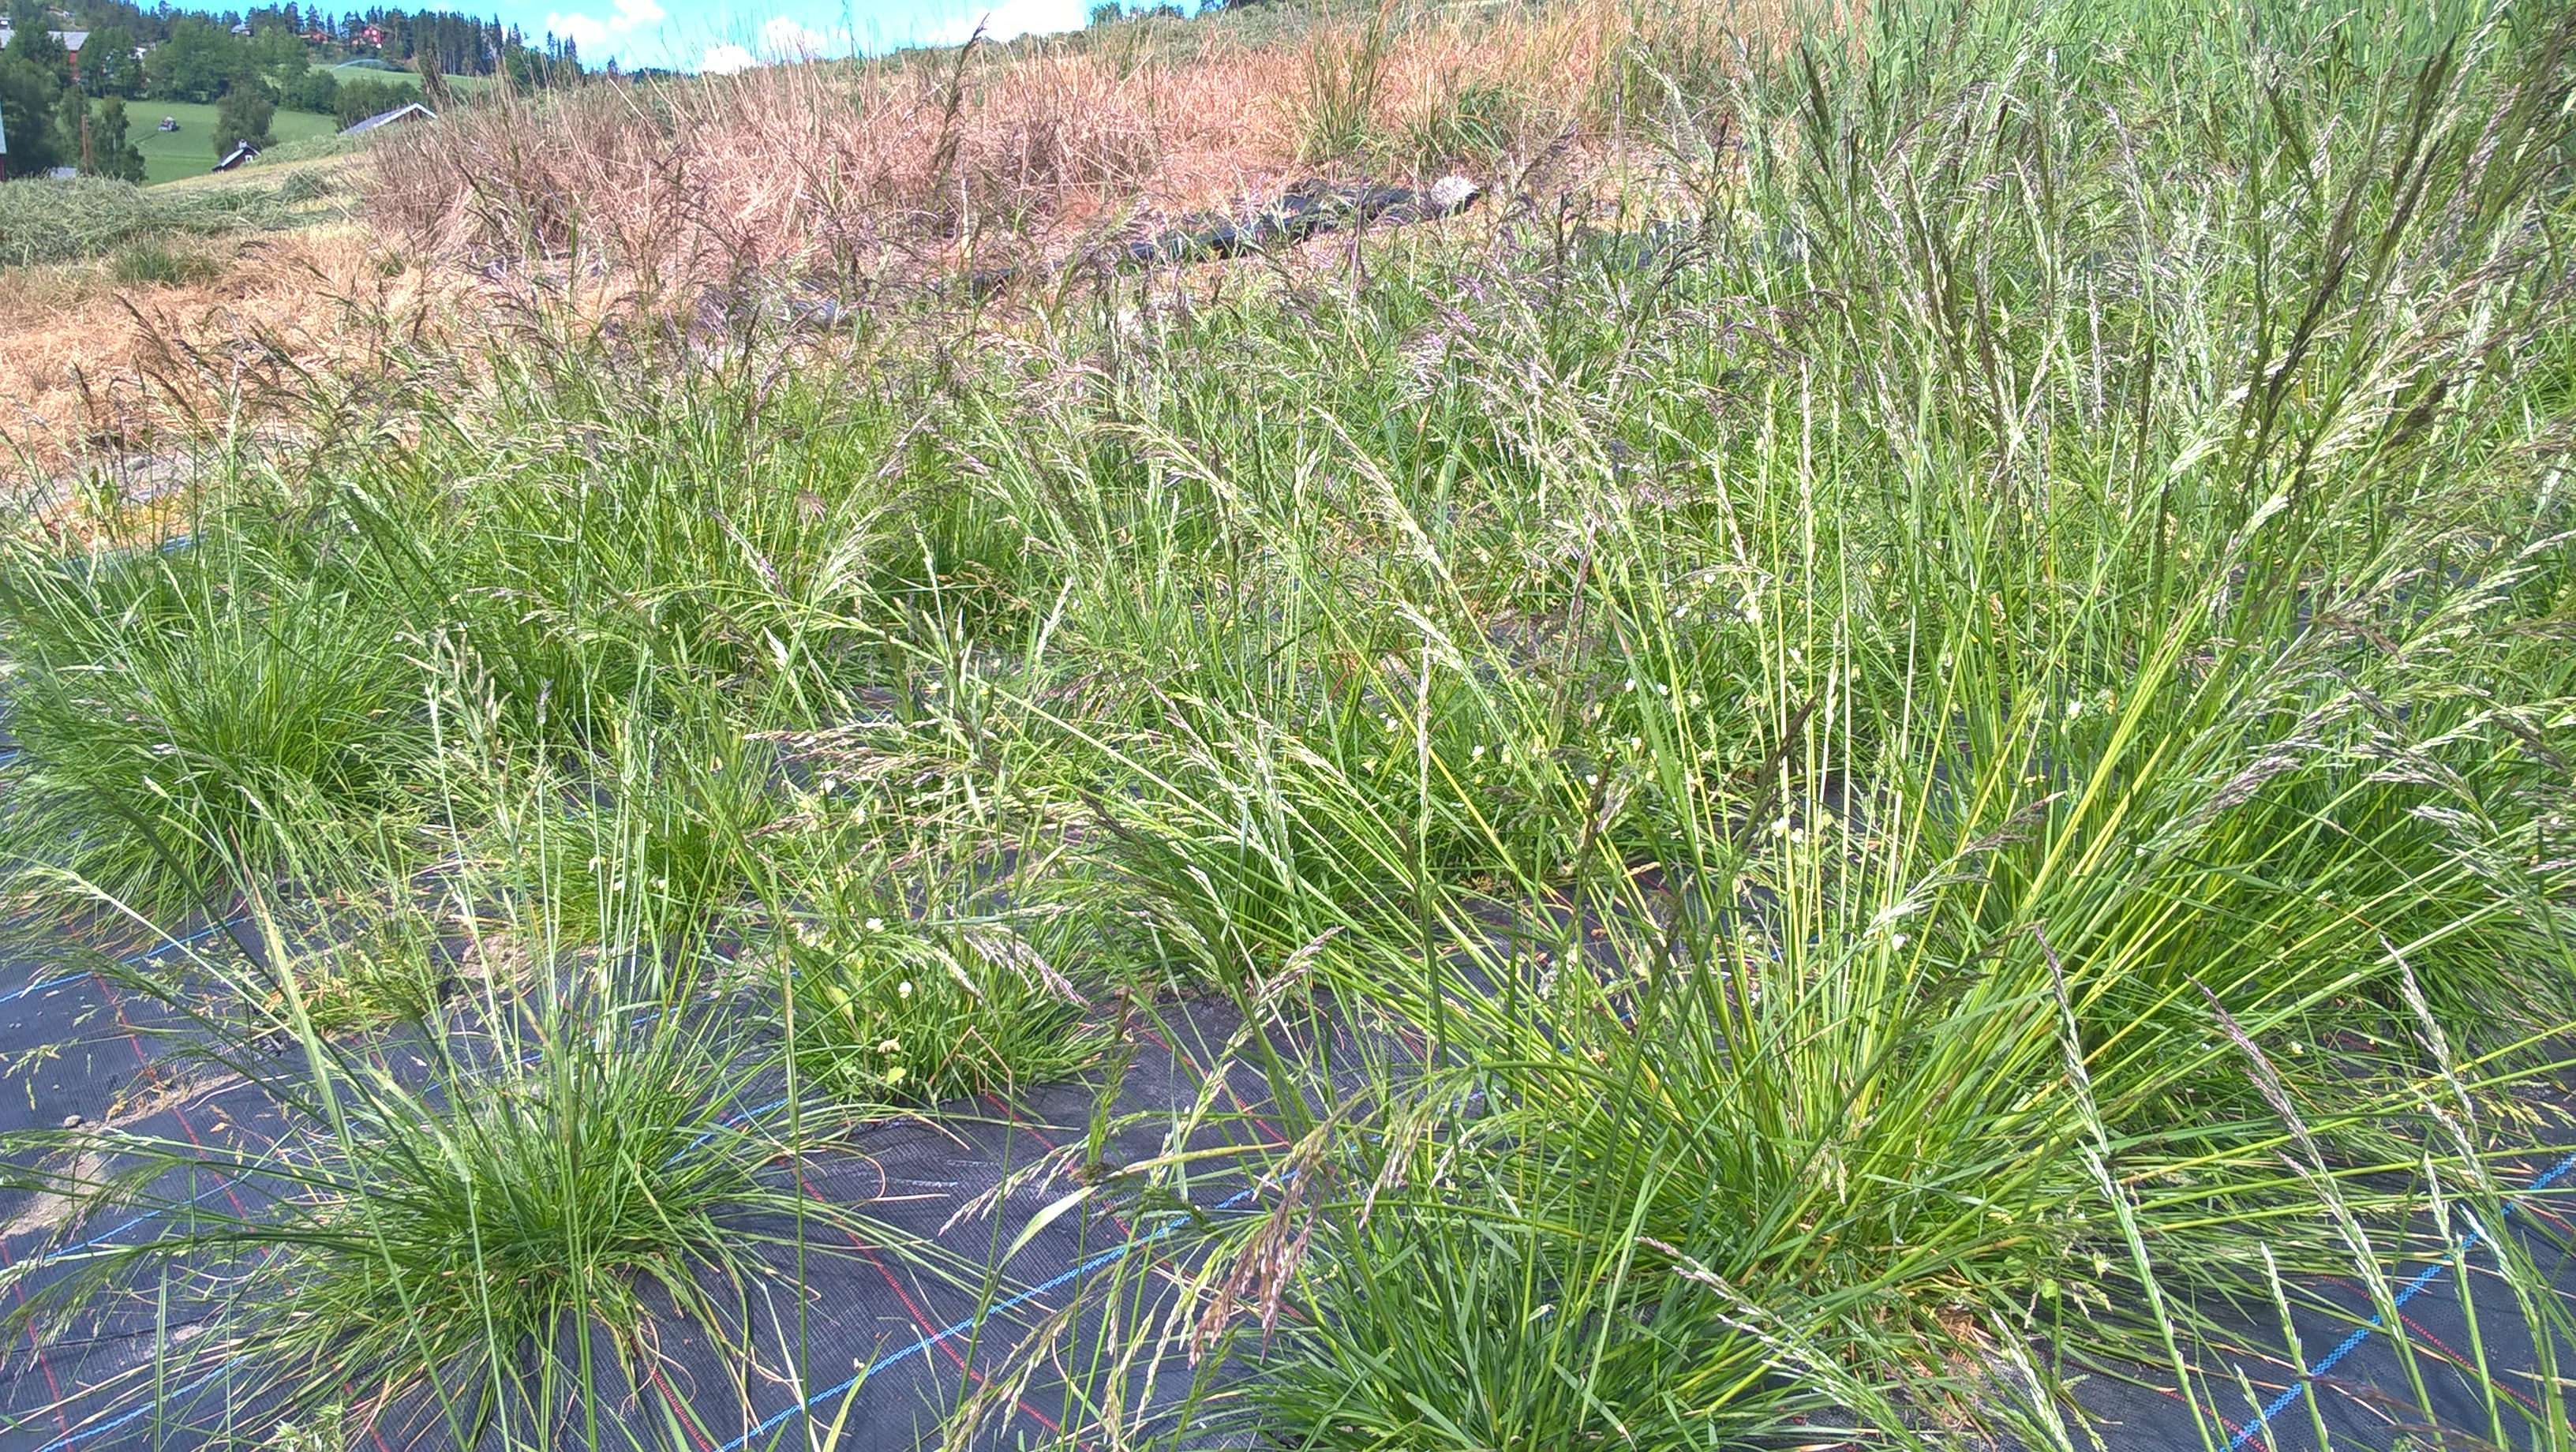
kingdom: Plantae
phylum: Tracheophyta
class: Liliopsida
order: Poales
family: Poaceae
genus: Deschampsia
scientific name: Deschampsia cespitosa
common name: Tufted hair-grass
